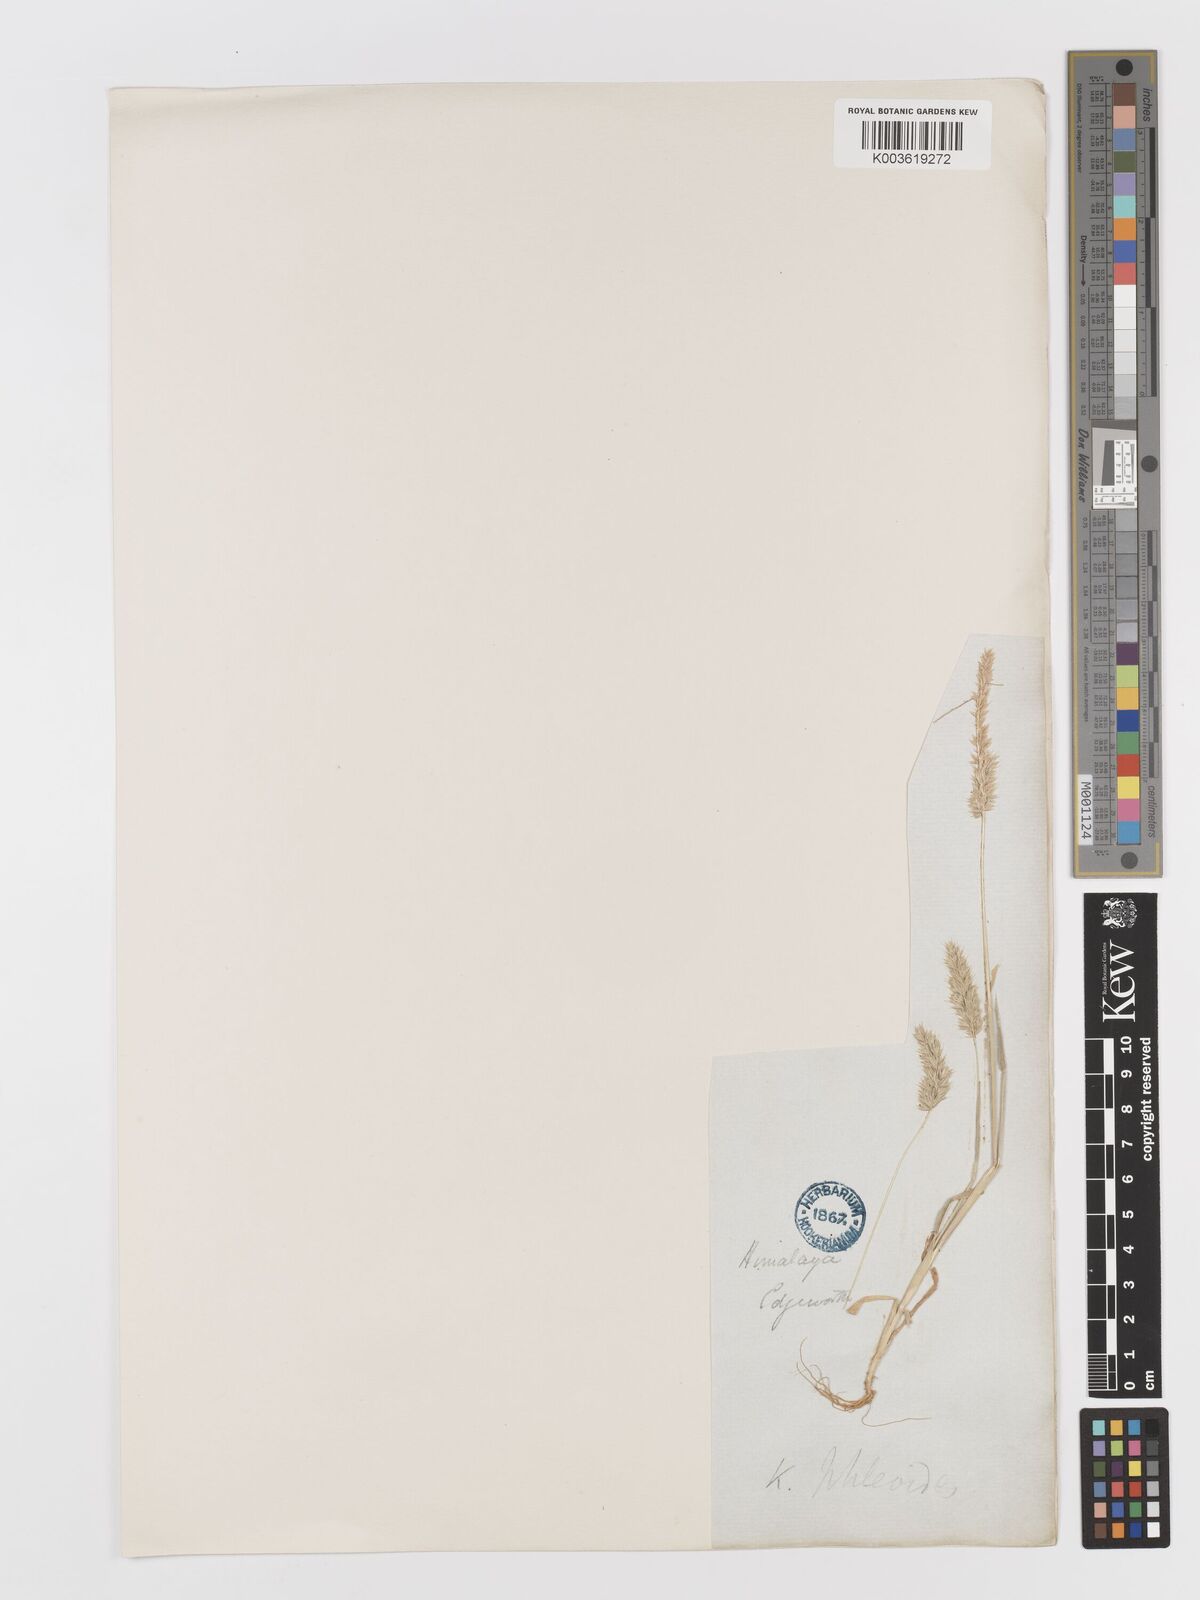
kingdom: Plantae
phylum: Tracheophyta
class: Liliopsida
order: Poales
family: Poaceae
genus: Rostraria
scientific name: Rostraria cristata
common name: Mediterranean hair-grass
